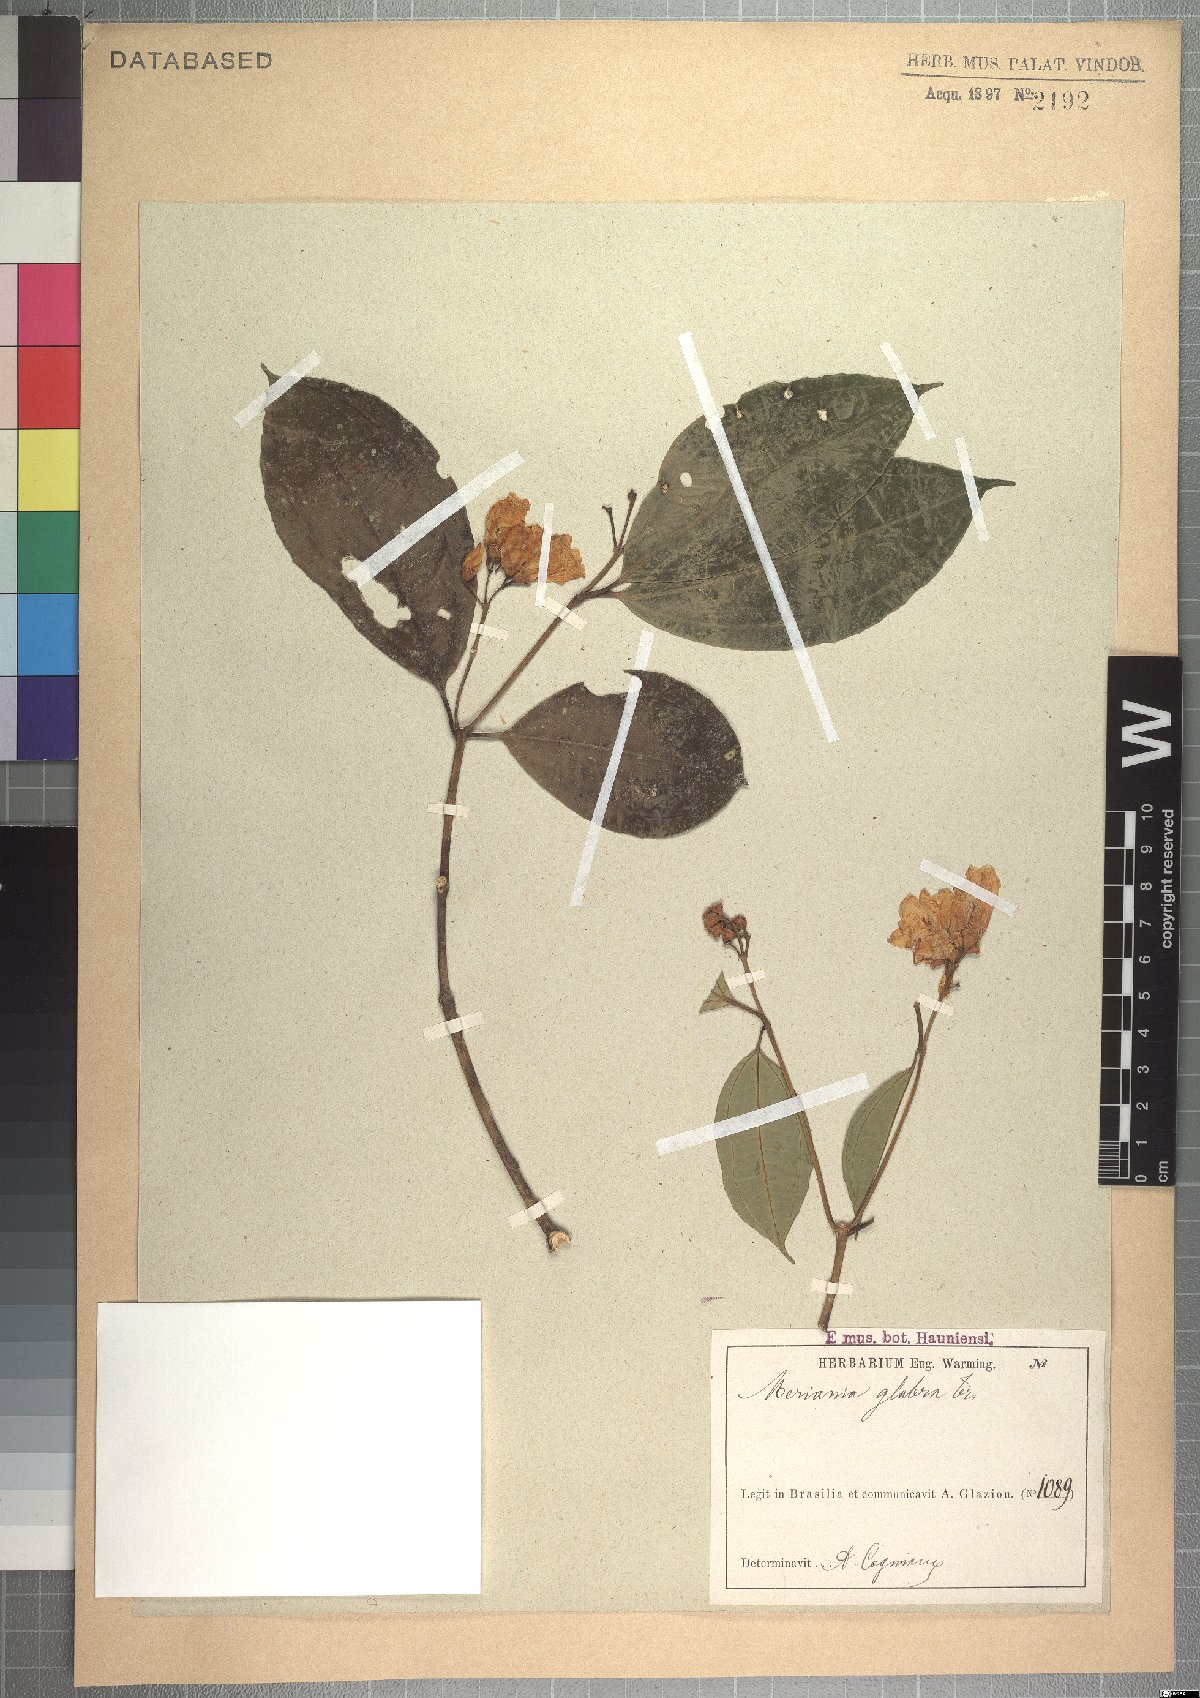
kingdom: Plantae
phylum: Tracheophyta
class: Magnoliopsida
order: Myrtales
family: Melastomataceae
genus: Meriania
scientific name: Meriania glabra
